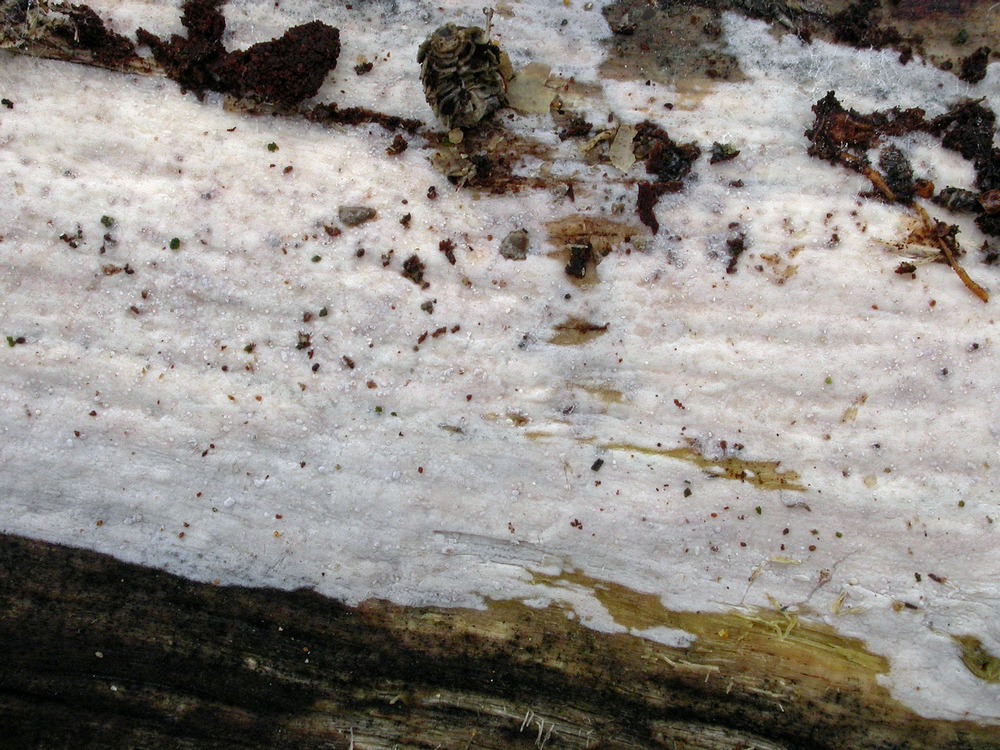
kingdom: Fungi
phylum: Basidiomycota
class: Agaricomycetes
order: Auriculariales
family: Auriculariaceae
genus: Alloexidiopsis
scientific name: Alloexidiopsis calcea
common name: kalkhvid bævrehinde
